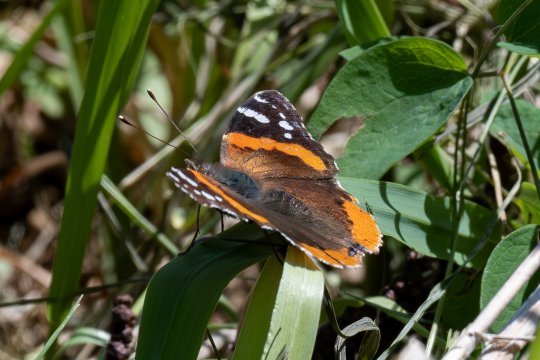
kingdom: Animalia
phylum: Arthropoda
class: Insecta
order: Lepidoptera
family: Nymphalidae
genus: Vanessa
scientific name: Vanessa atalanta
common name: Red Admiral
